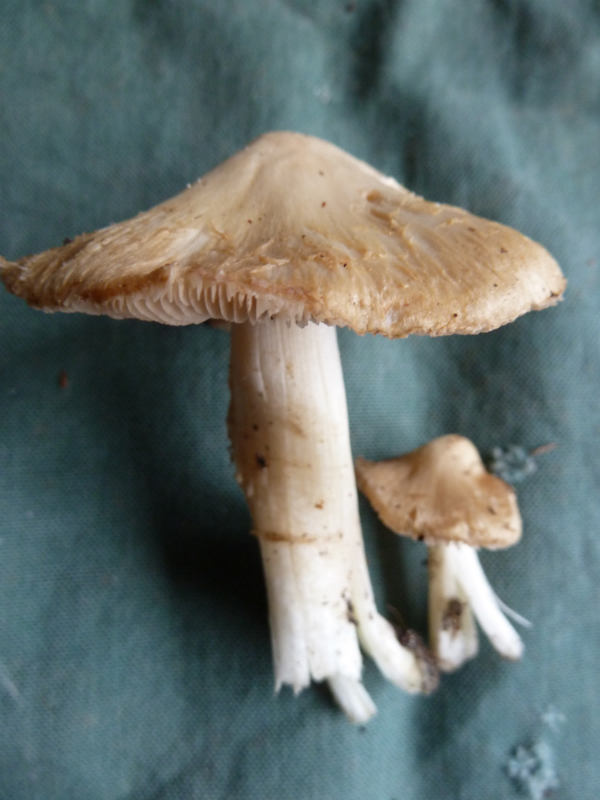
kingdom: Fungi
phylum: Basidiomycota
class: Agaricomycetes
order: Agaricales
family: Inocybaceae
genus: Inocybe
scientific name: Inocybe sambucina
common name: hyldehvid trævlhat
